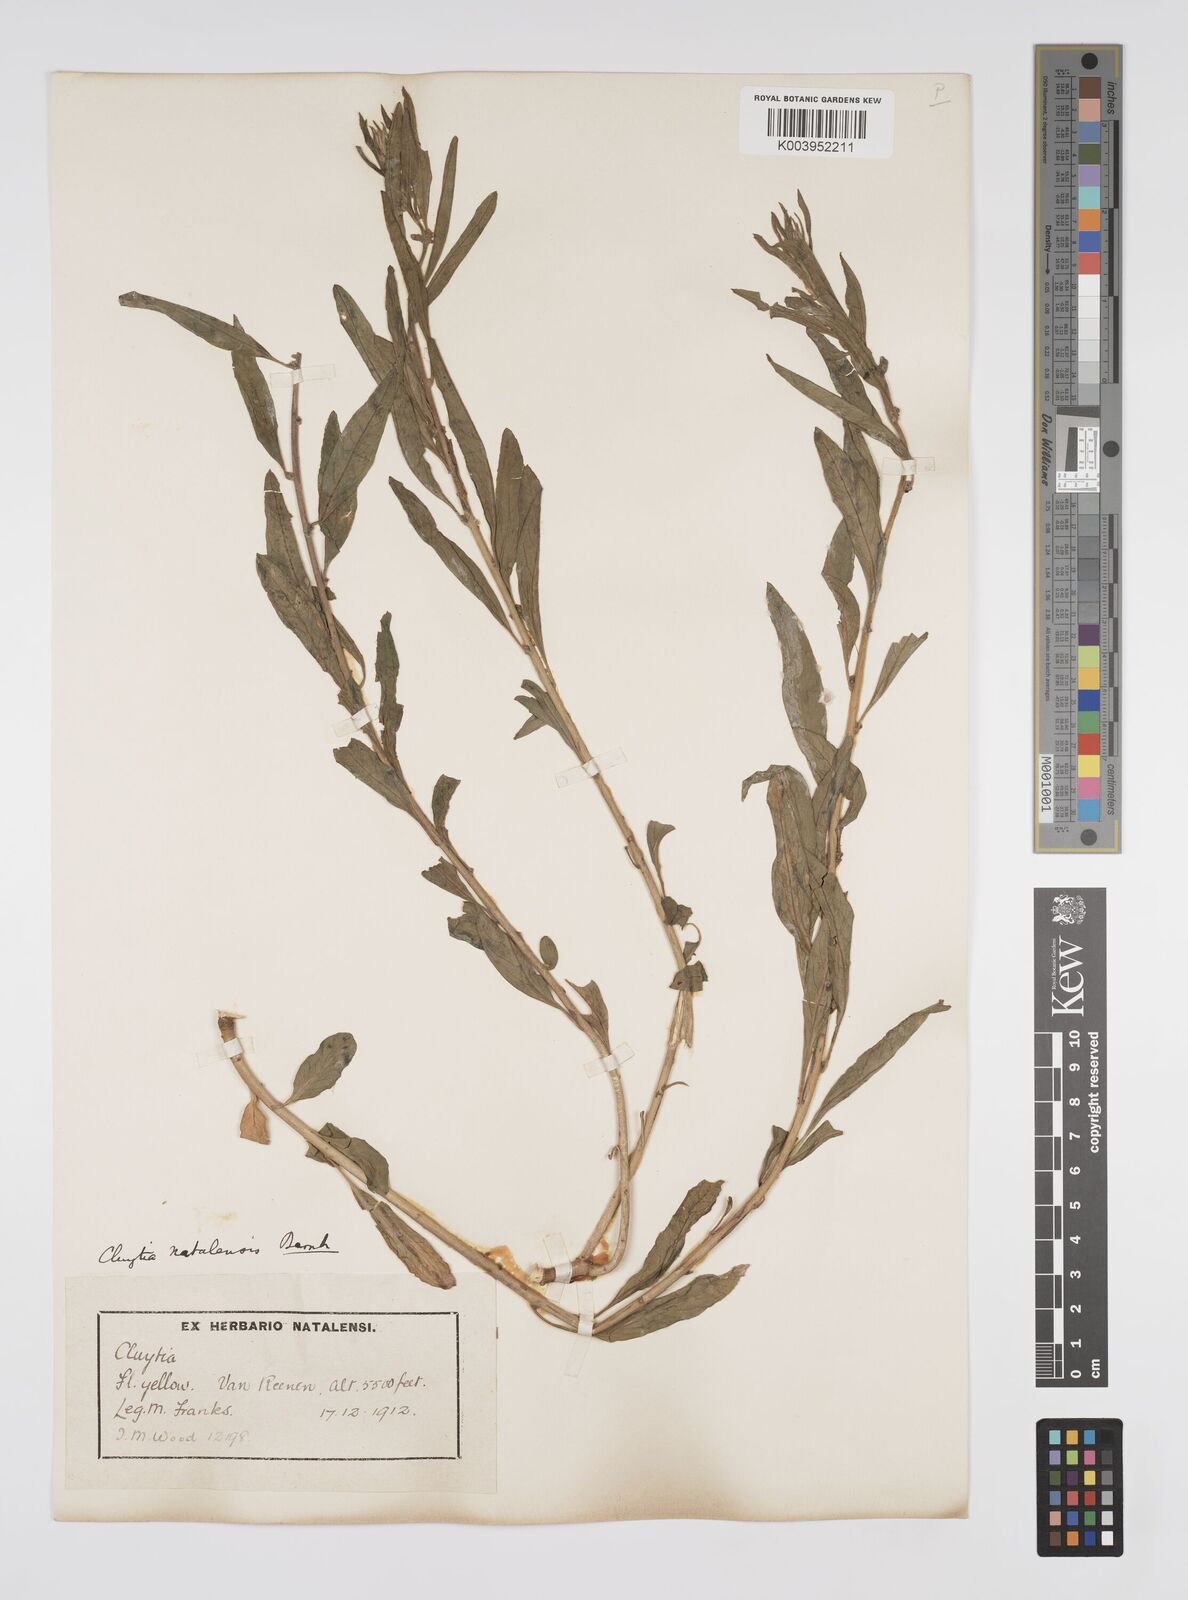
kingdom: Plantae
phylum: Tracheophyta
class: Magnoliopsida
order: Malpighiales
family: Peraceae
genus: Clutia
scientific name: Clutia natalensis
